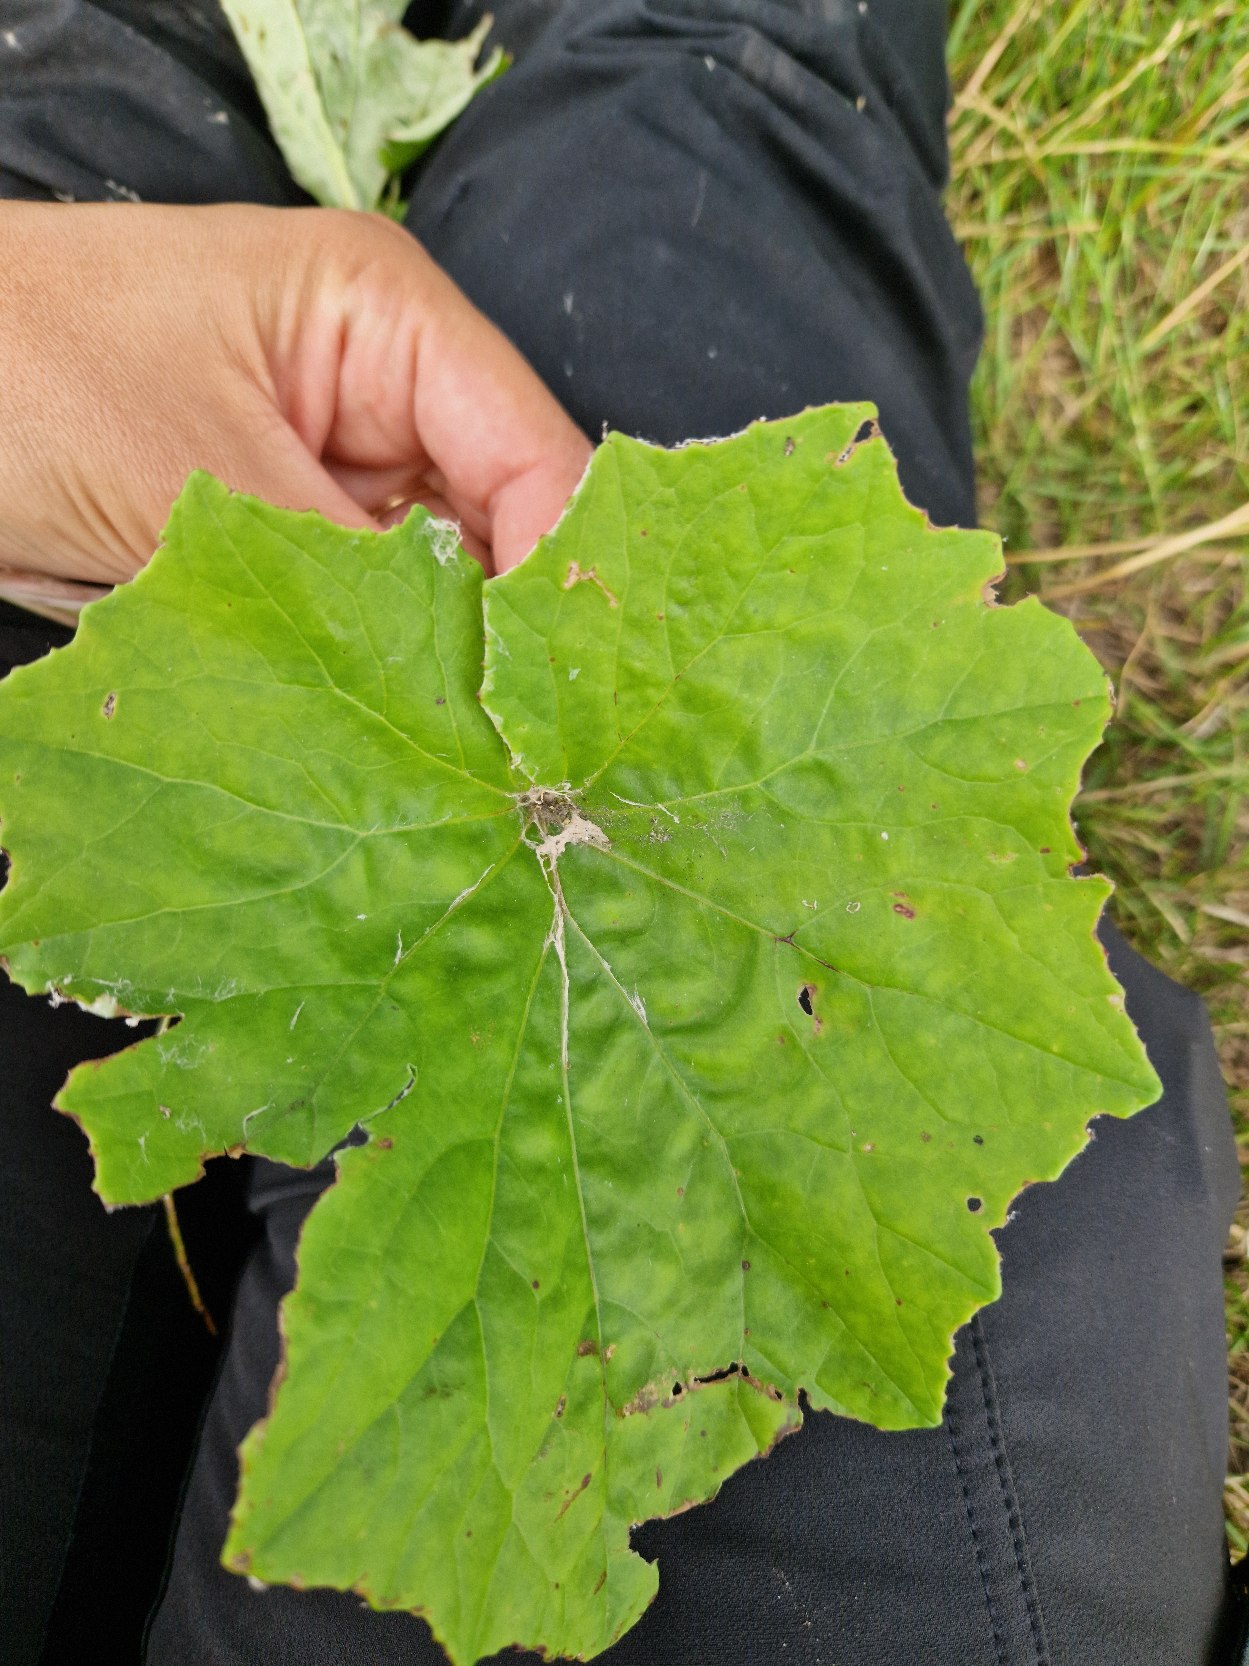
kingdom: Plantae
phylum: Tracheophyta
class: Magnoliopsida
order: Asterales
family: Asteraceae
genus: Tussilago
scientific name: Tussilago farfara
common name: Følfod
